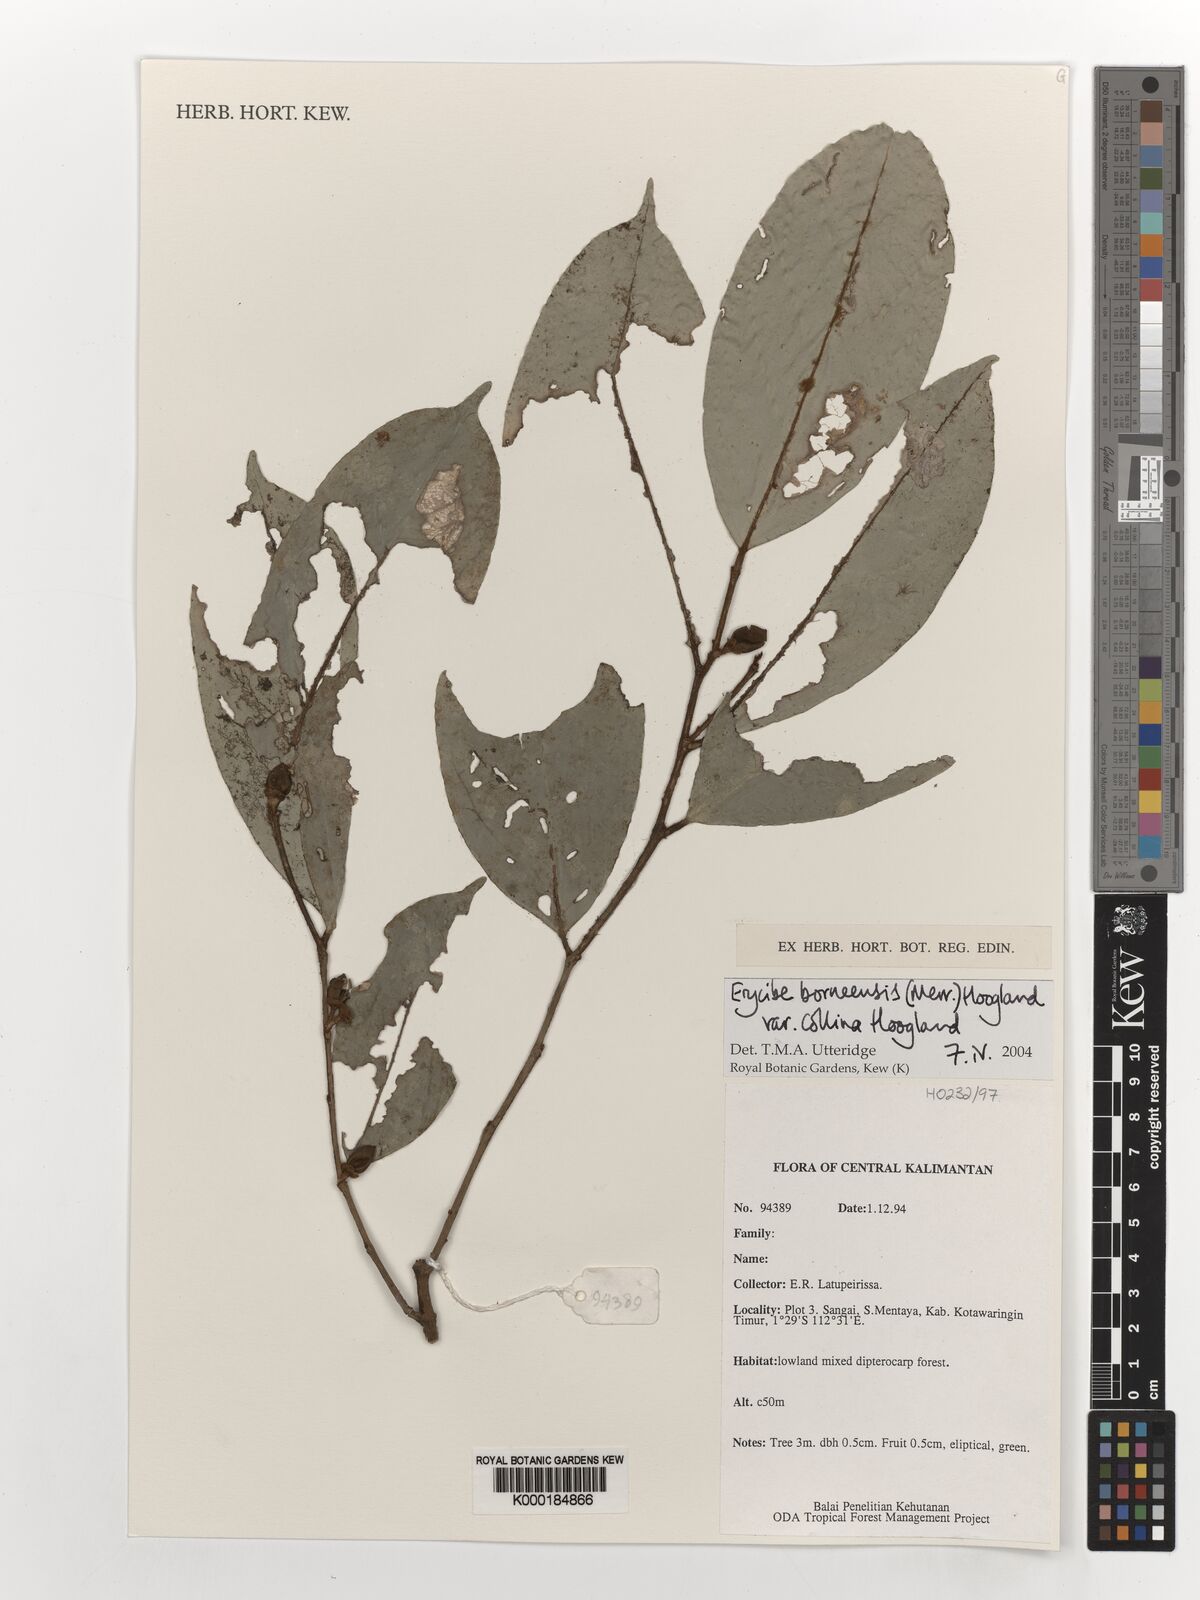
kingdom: Plantae
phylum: Tracheophyta
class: Magnoliopsida
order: Solanales
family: Convolvulaceae
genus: Erycibe
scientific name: Erycibe borneensis
